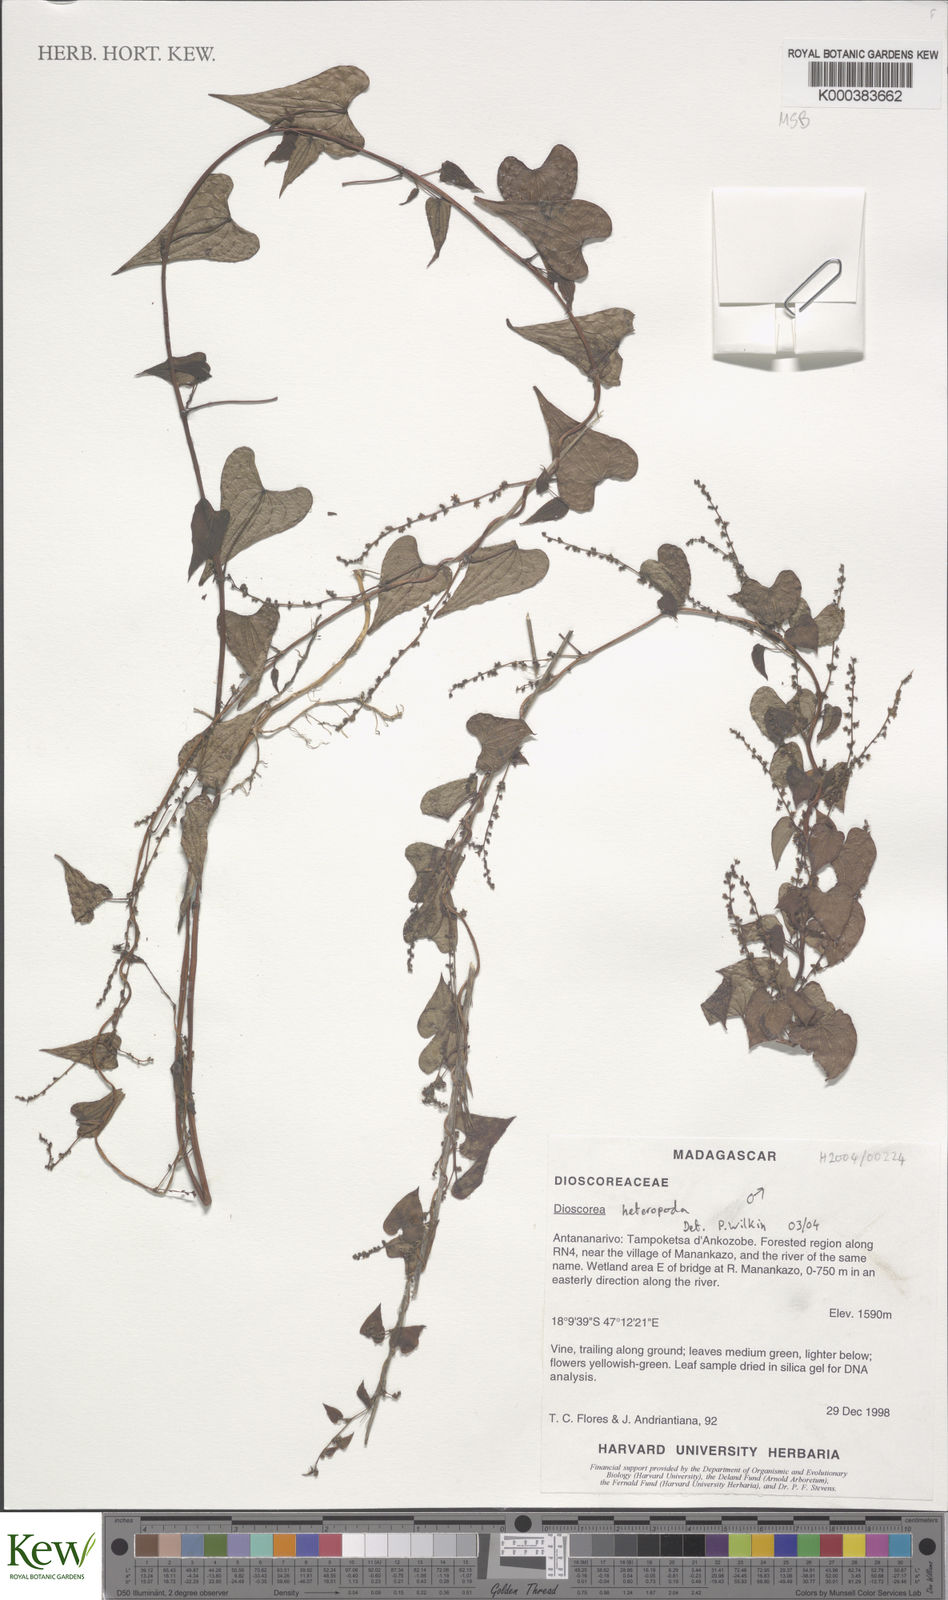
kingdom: Plantae
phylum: Tracheophyta
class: Liliopsida
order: Dioscoreales
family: Dioscoreaceae
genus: Dioscorea
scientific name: Dioscorea heteropoda
